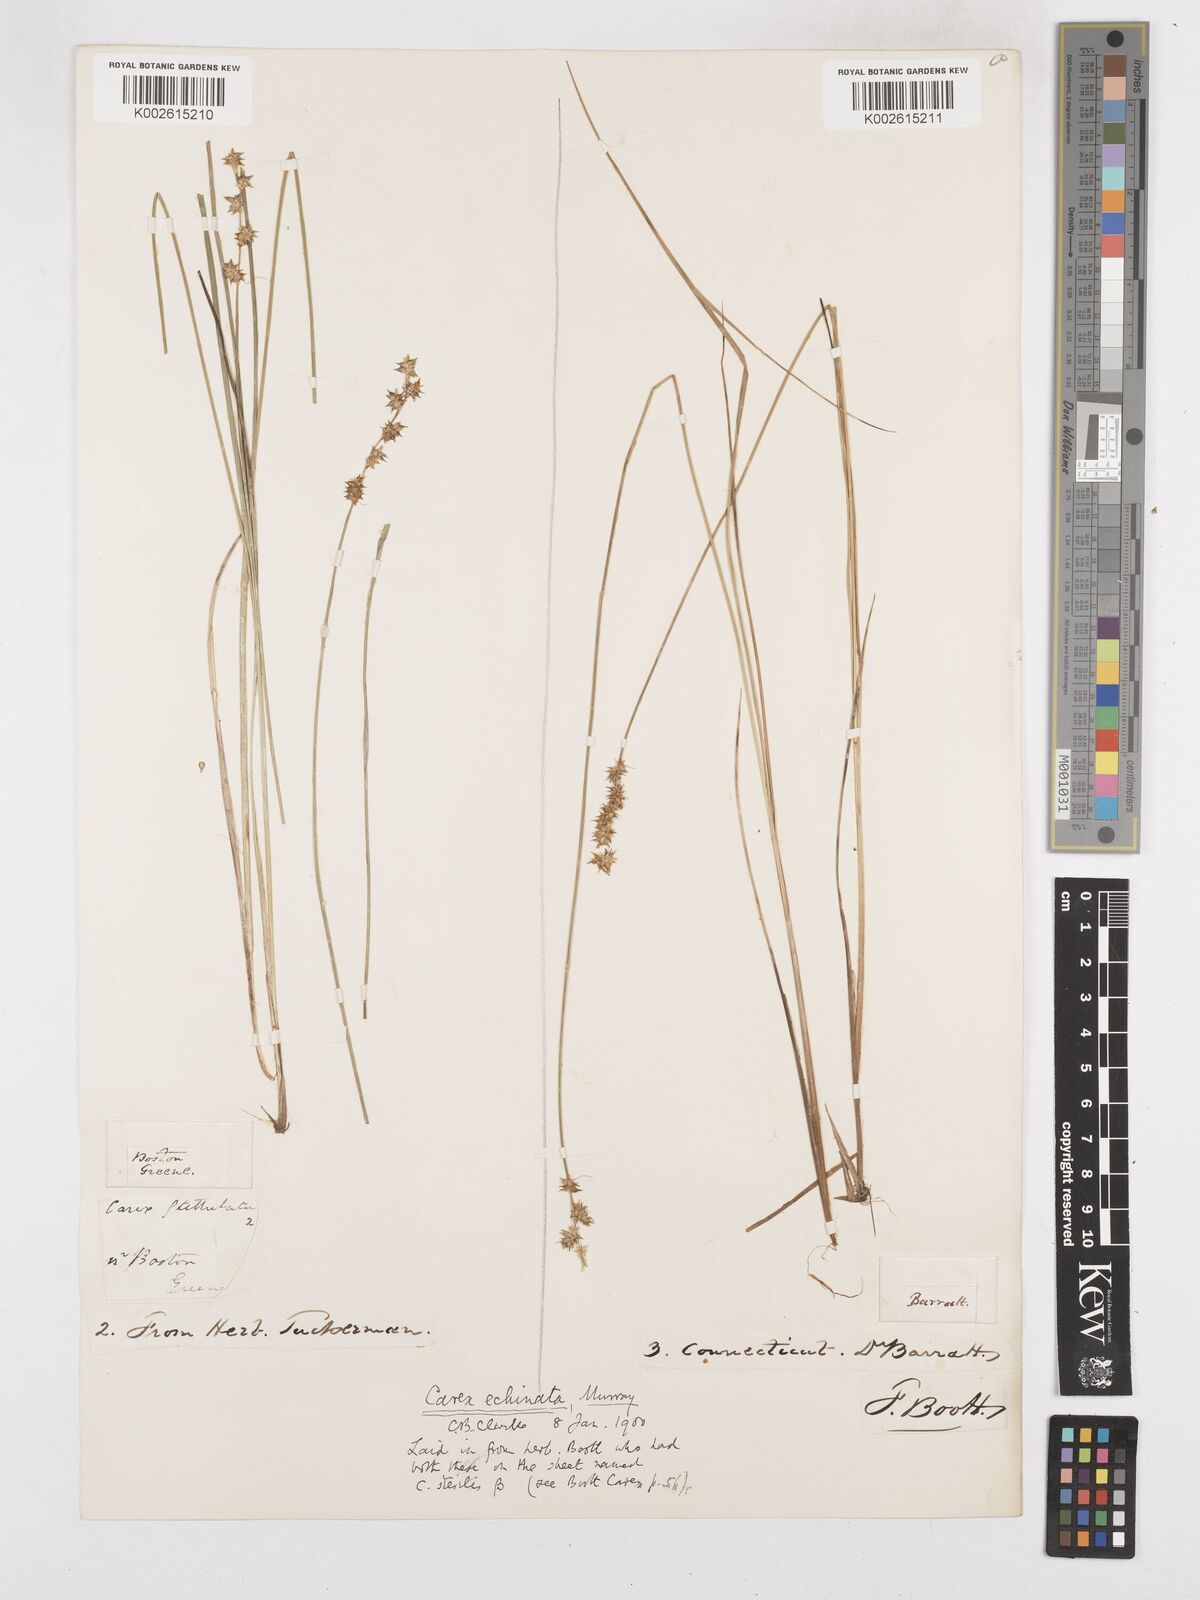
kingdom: Plantae
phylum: Tracheophyta
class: Liliopsida
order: Poales
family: Cyperaceae
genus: Carex
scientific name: Carex echinata
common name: Star sedge
